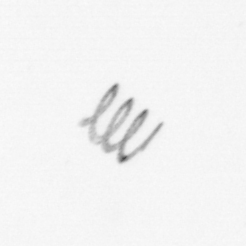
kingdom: Chromista
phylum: Ochrophyta
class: Bacillariophyceae
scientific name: Bacillariophyceae
